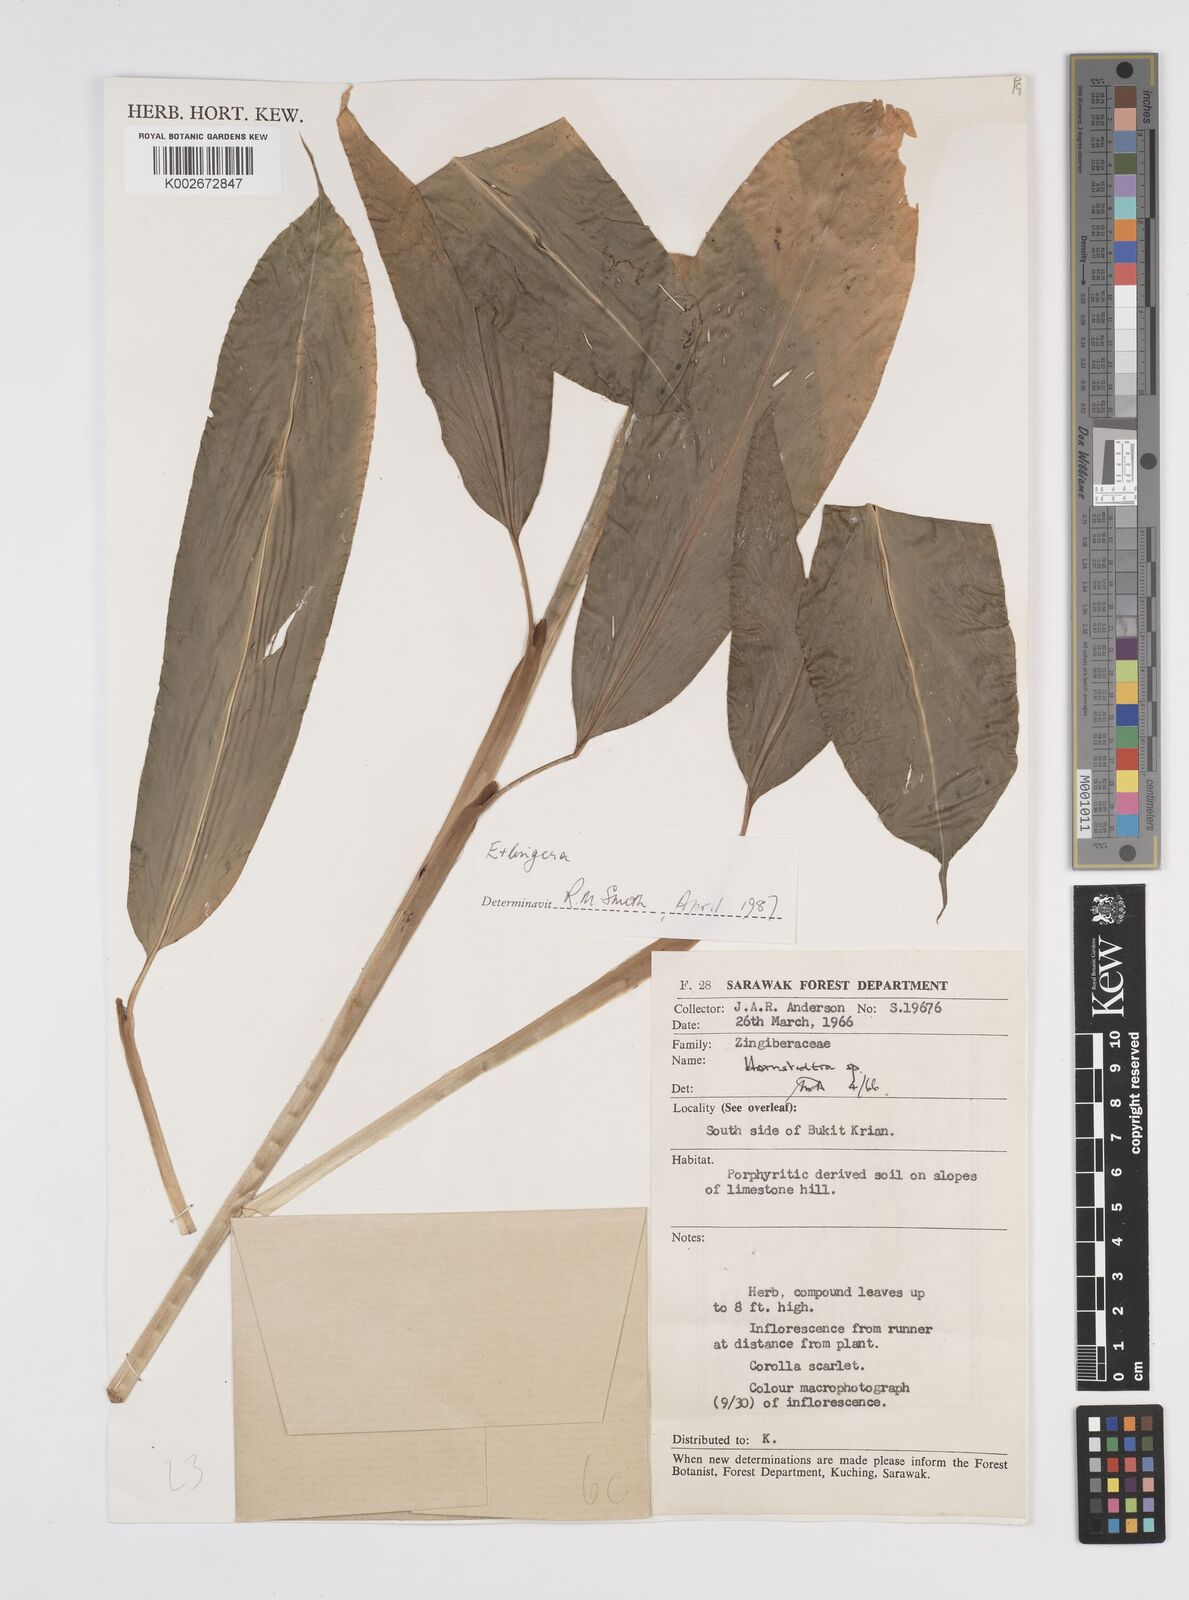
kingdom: Plantae
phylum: Tracheophyta
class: Liliopsida
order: Zingiberales
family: Zingiberaceae
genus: Etlingera
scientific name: Etlingera
